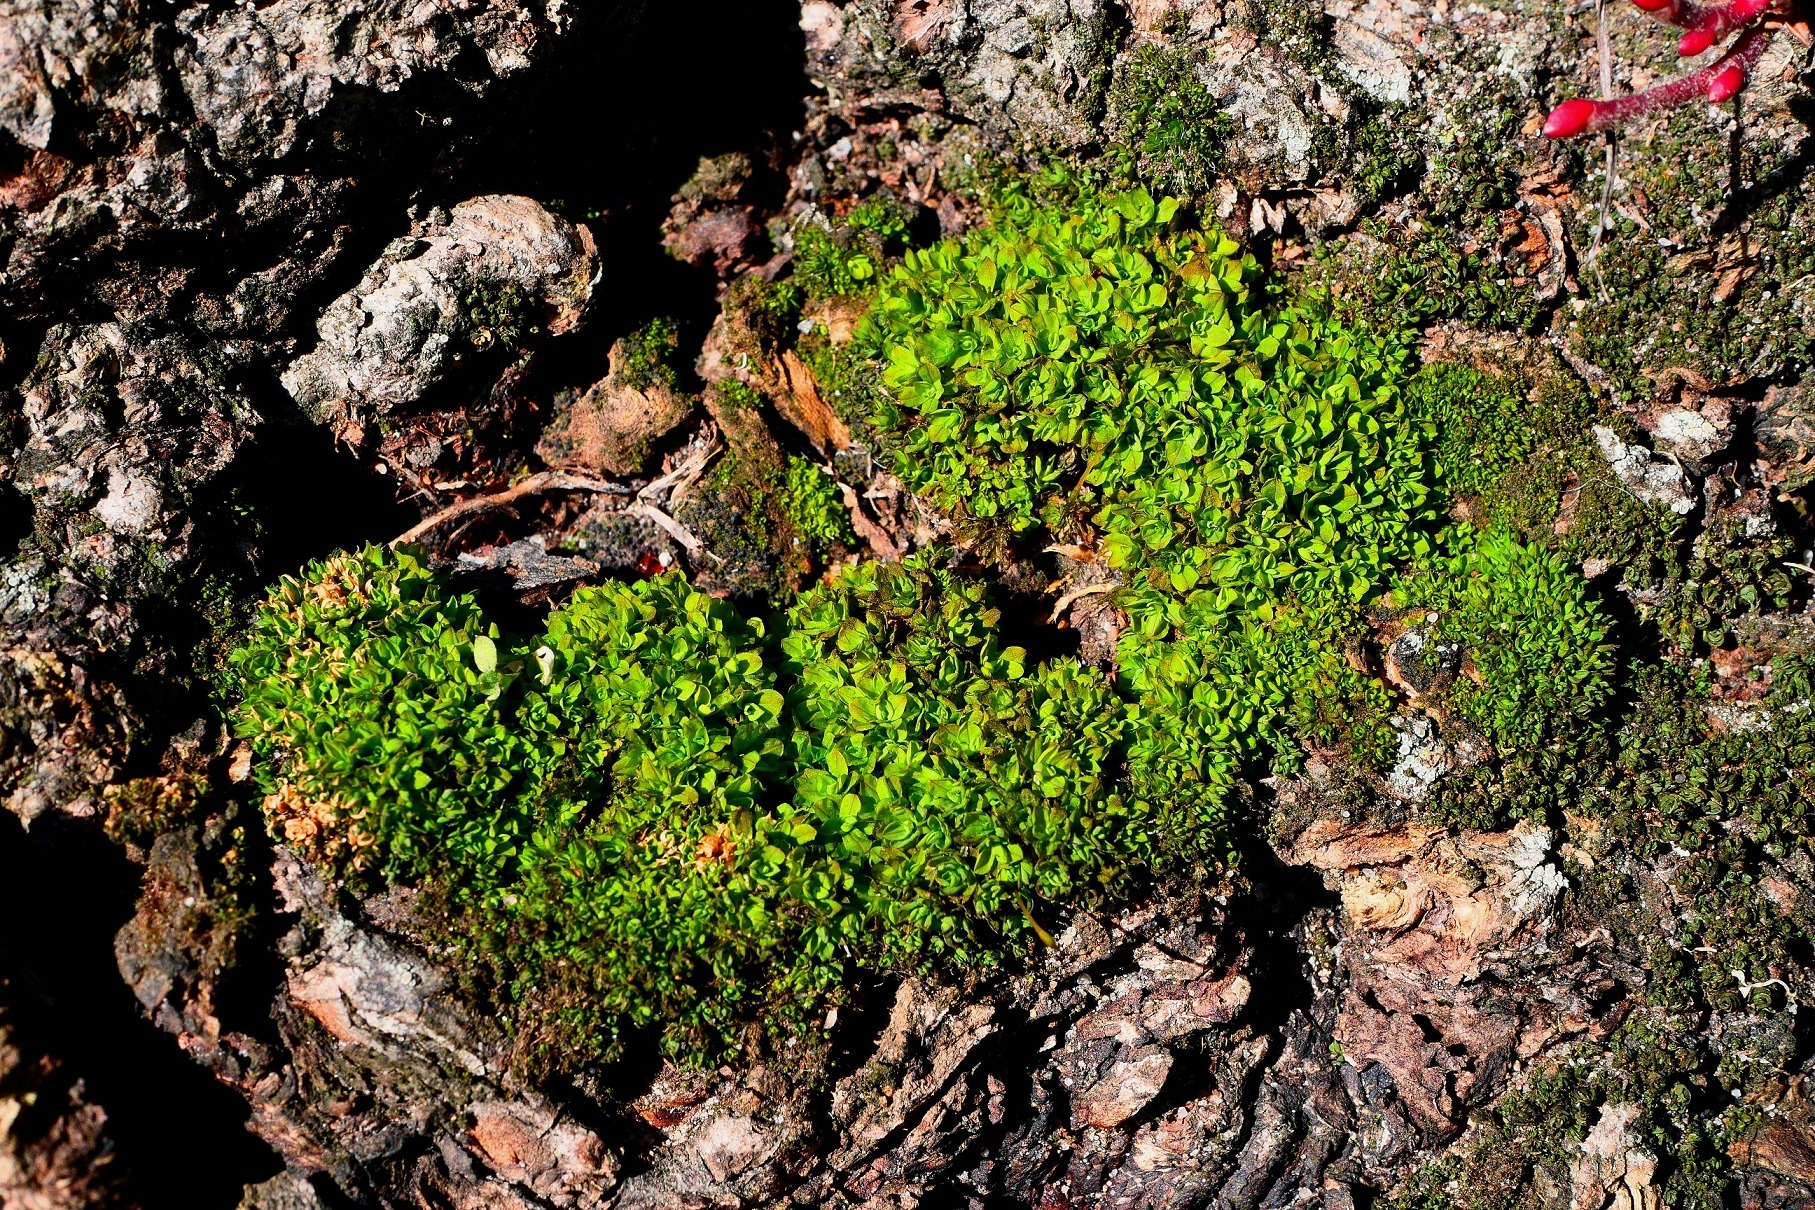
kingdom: Plantae
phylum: Bryophyta
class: Bryopsida
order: Pottiales
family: Pottiaceae
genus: Syntrichia
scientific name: Syntrichia latifolia
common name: Butbladet hårstjerne
